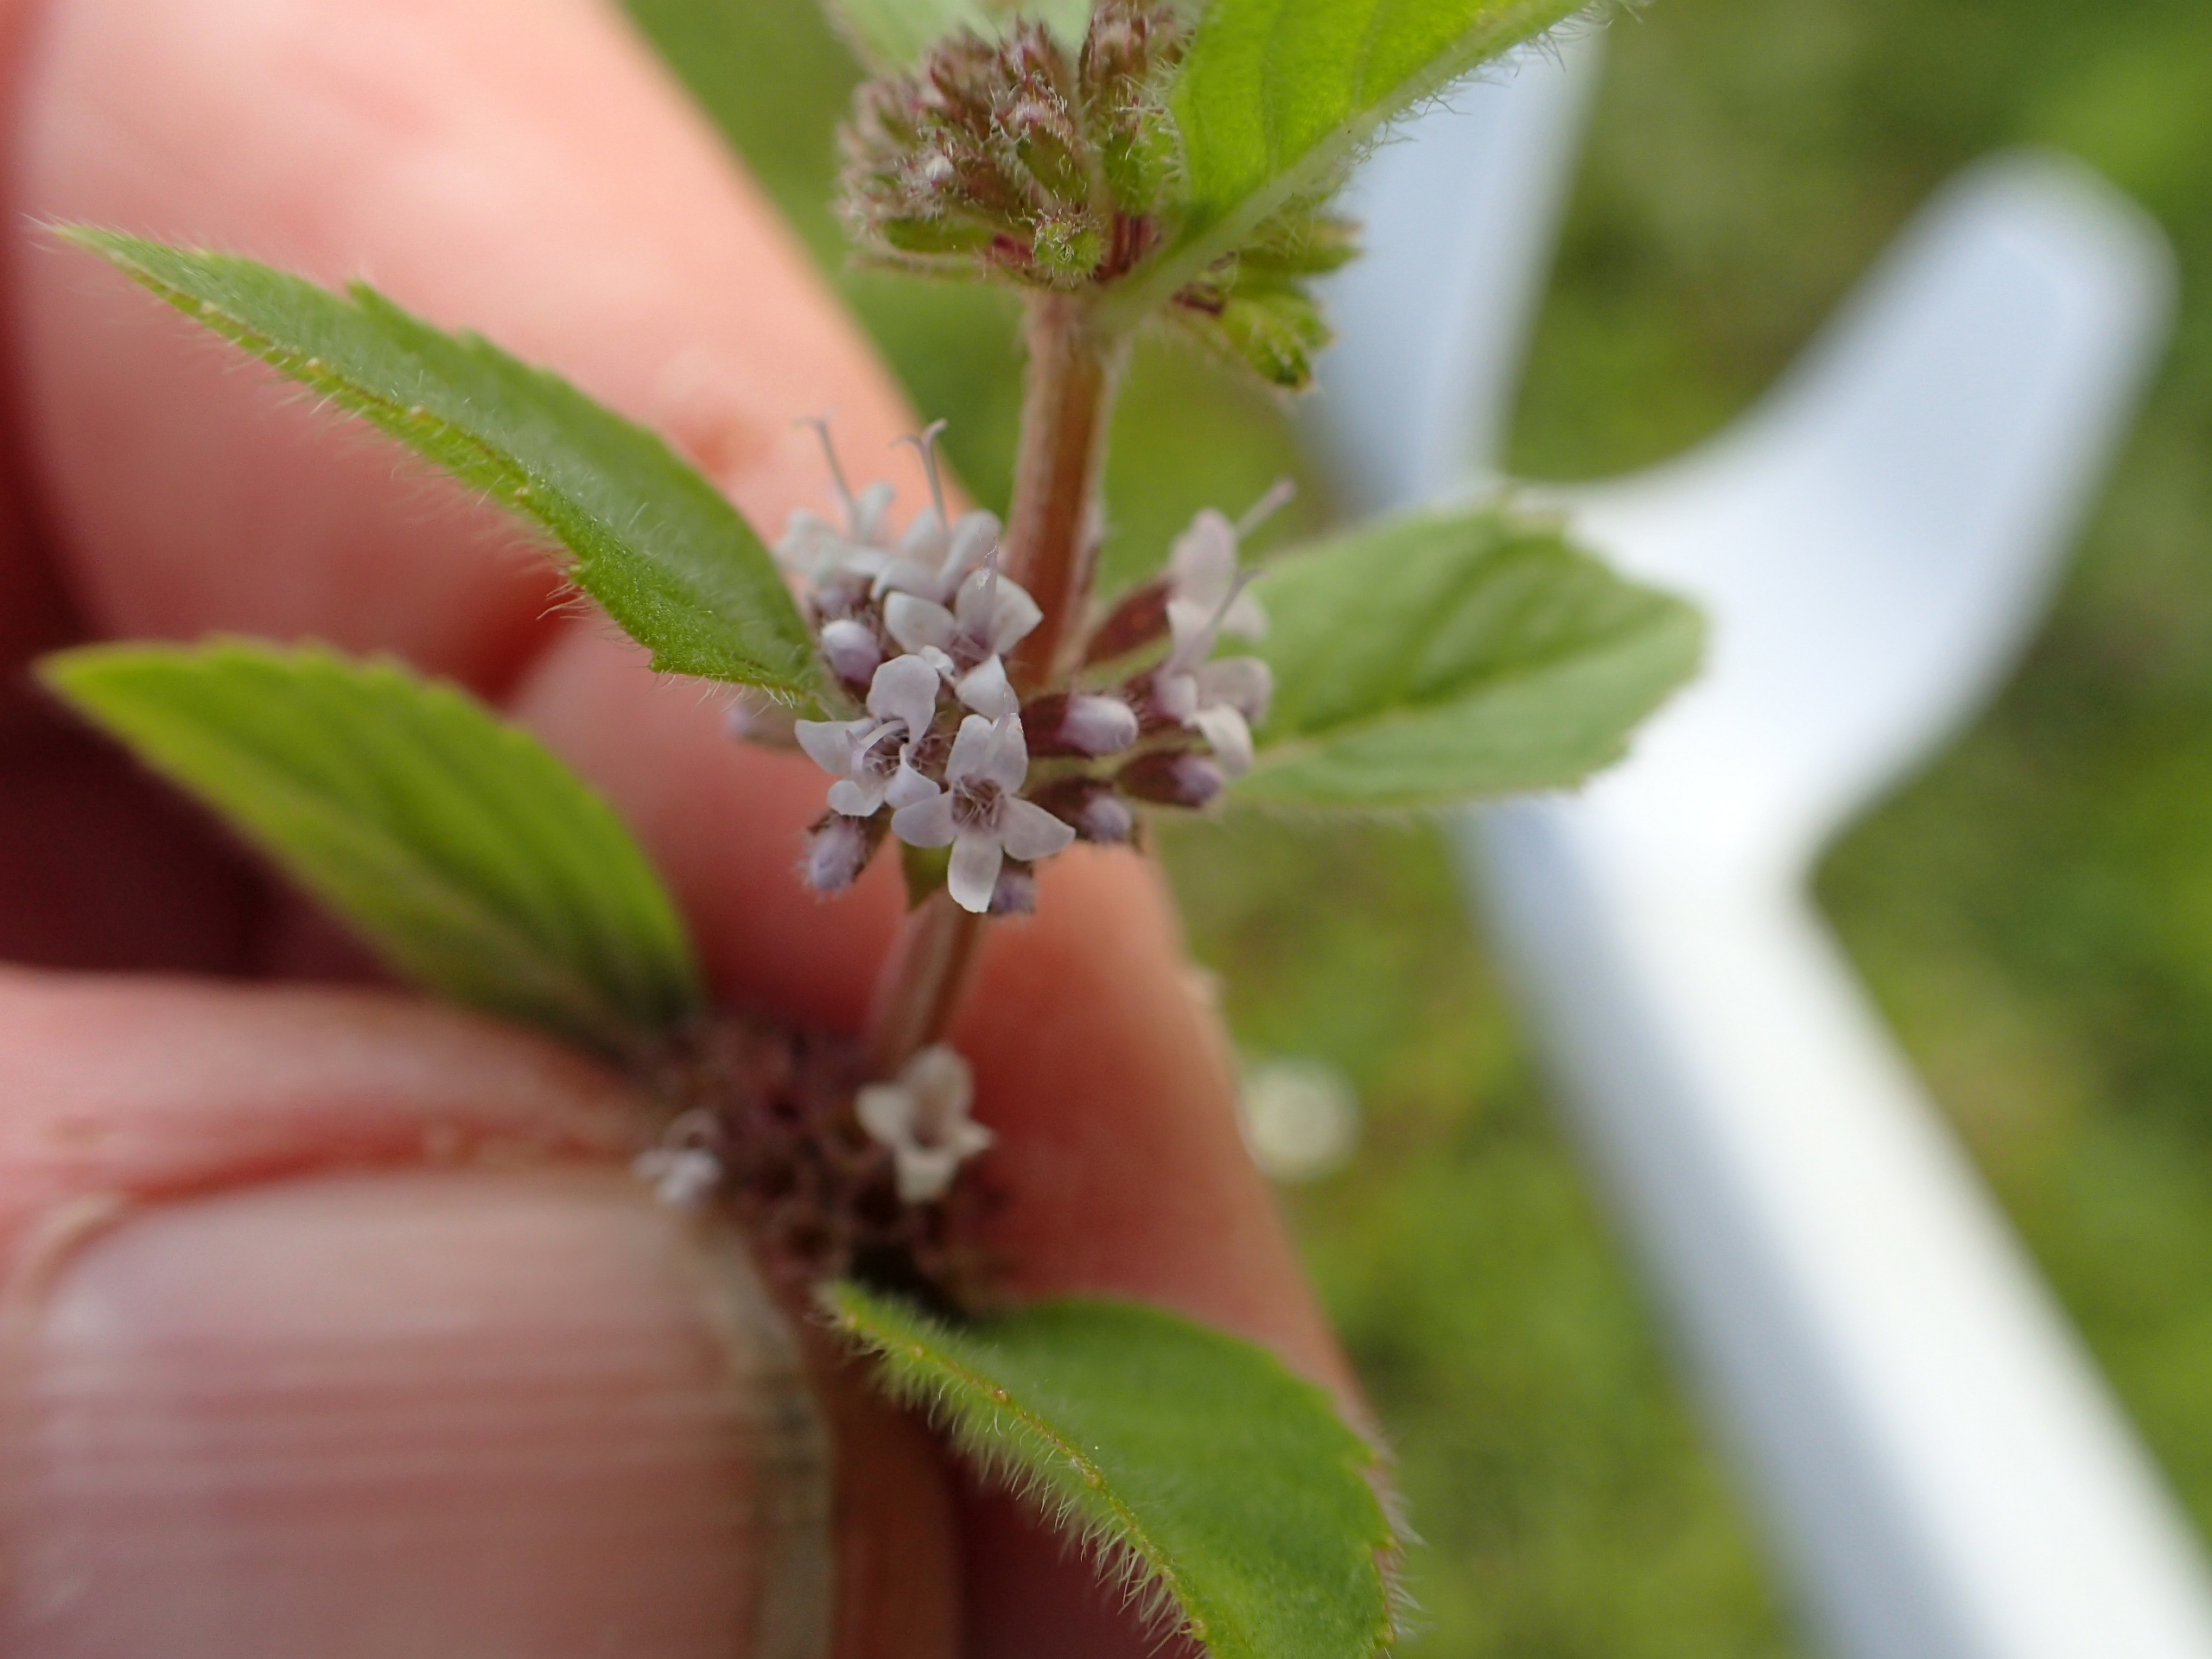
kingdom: Plantae
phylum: Tracheophyta
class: Magnoliopsida
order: Lamiales
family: Lamiaceae
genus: Mentha
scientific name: Mentha arvensis
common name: Ager-mynte
